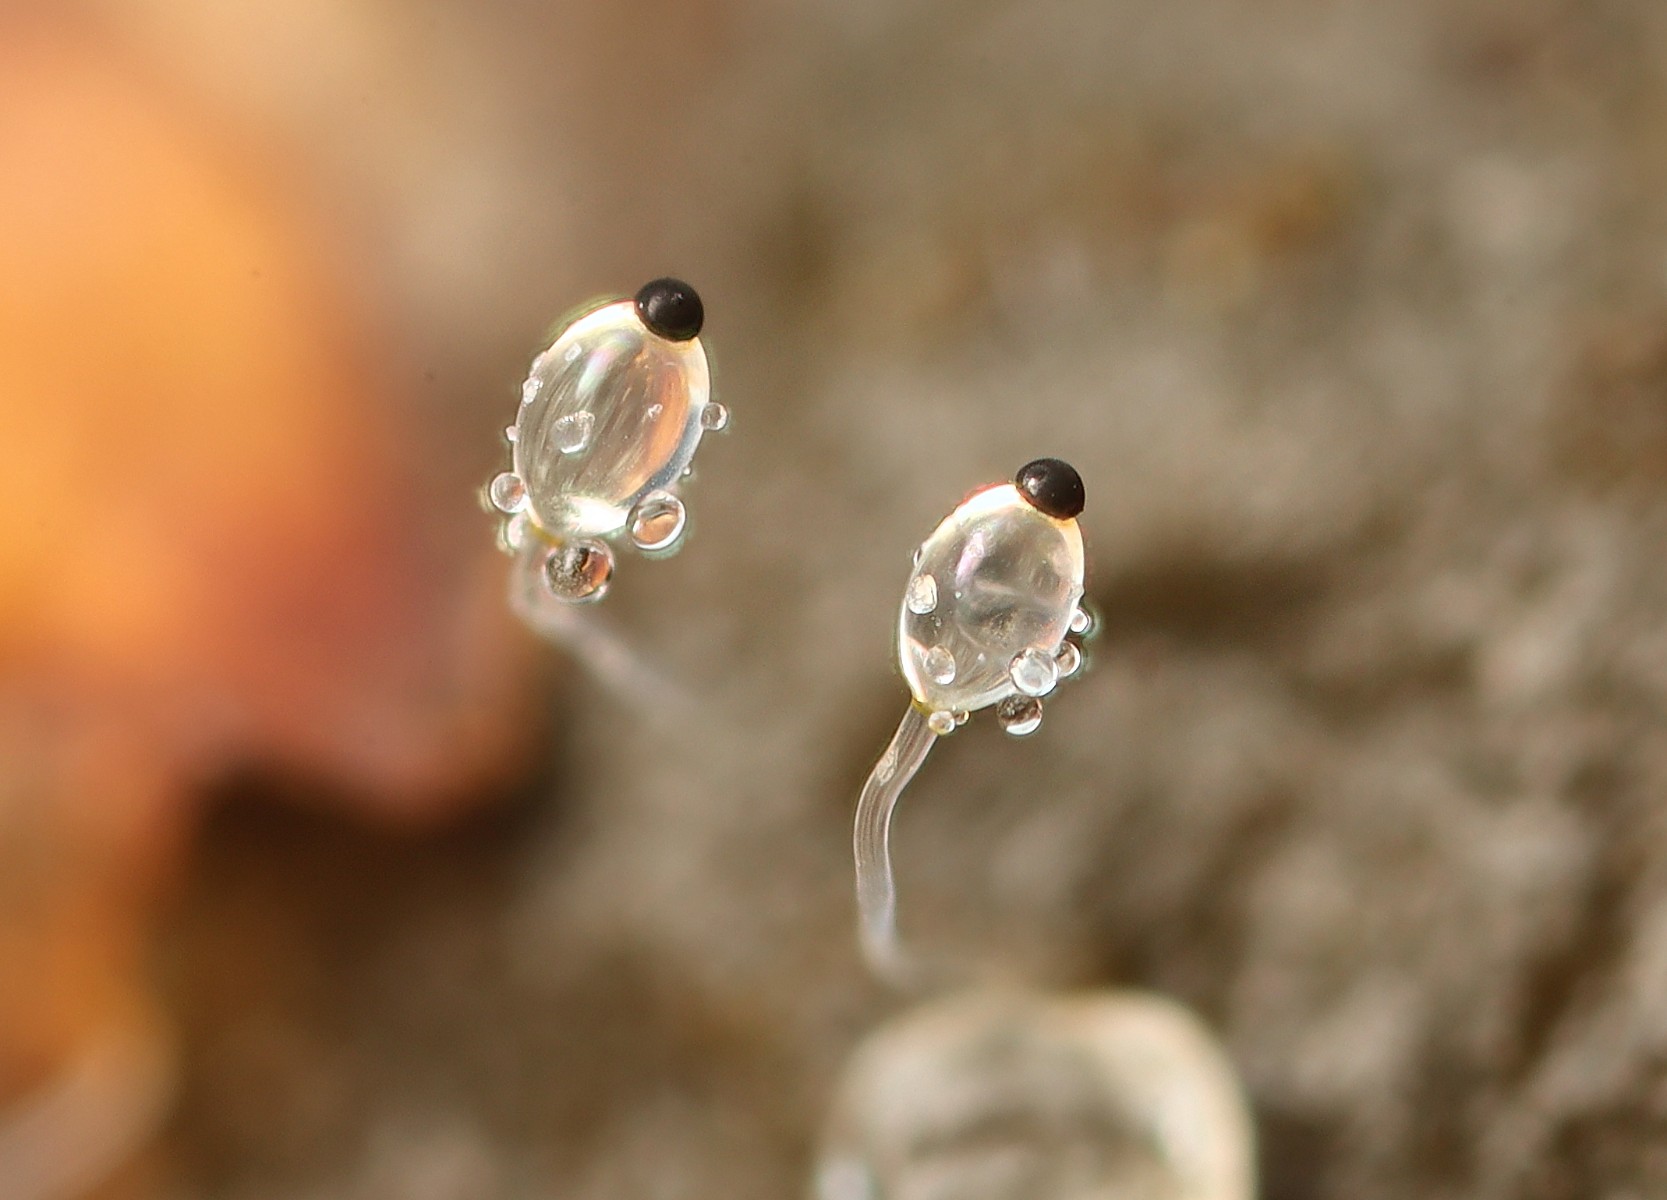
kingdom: Fungi
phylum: Mucoromycota
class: Mucoromycetes
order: Mucorales
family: Pilobolaceae
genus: Pilobolus
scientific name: Pilobolus
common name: boldkaster
